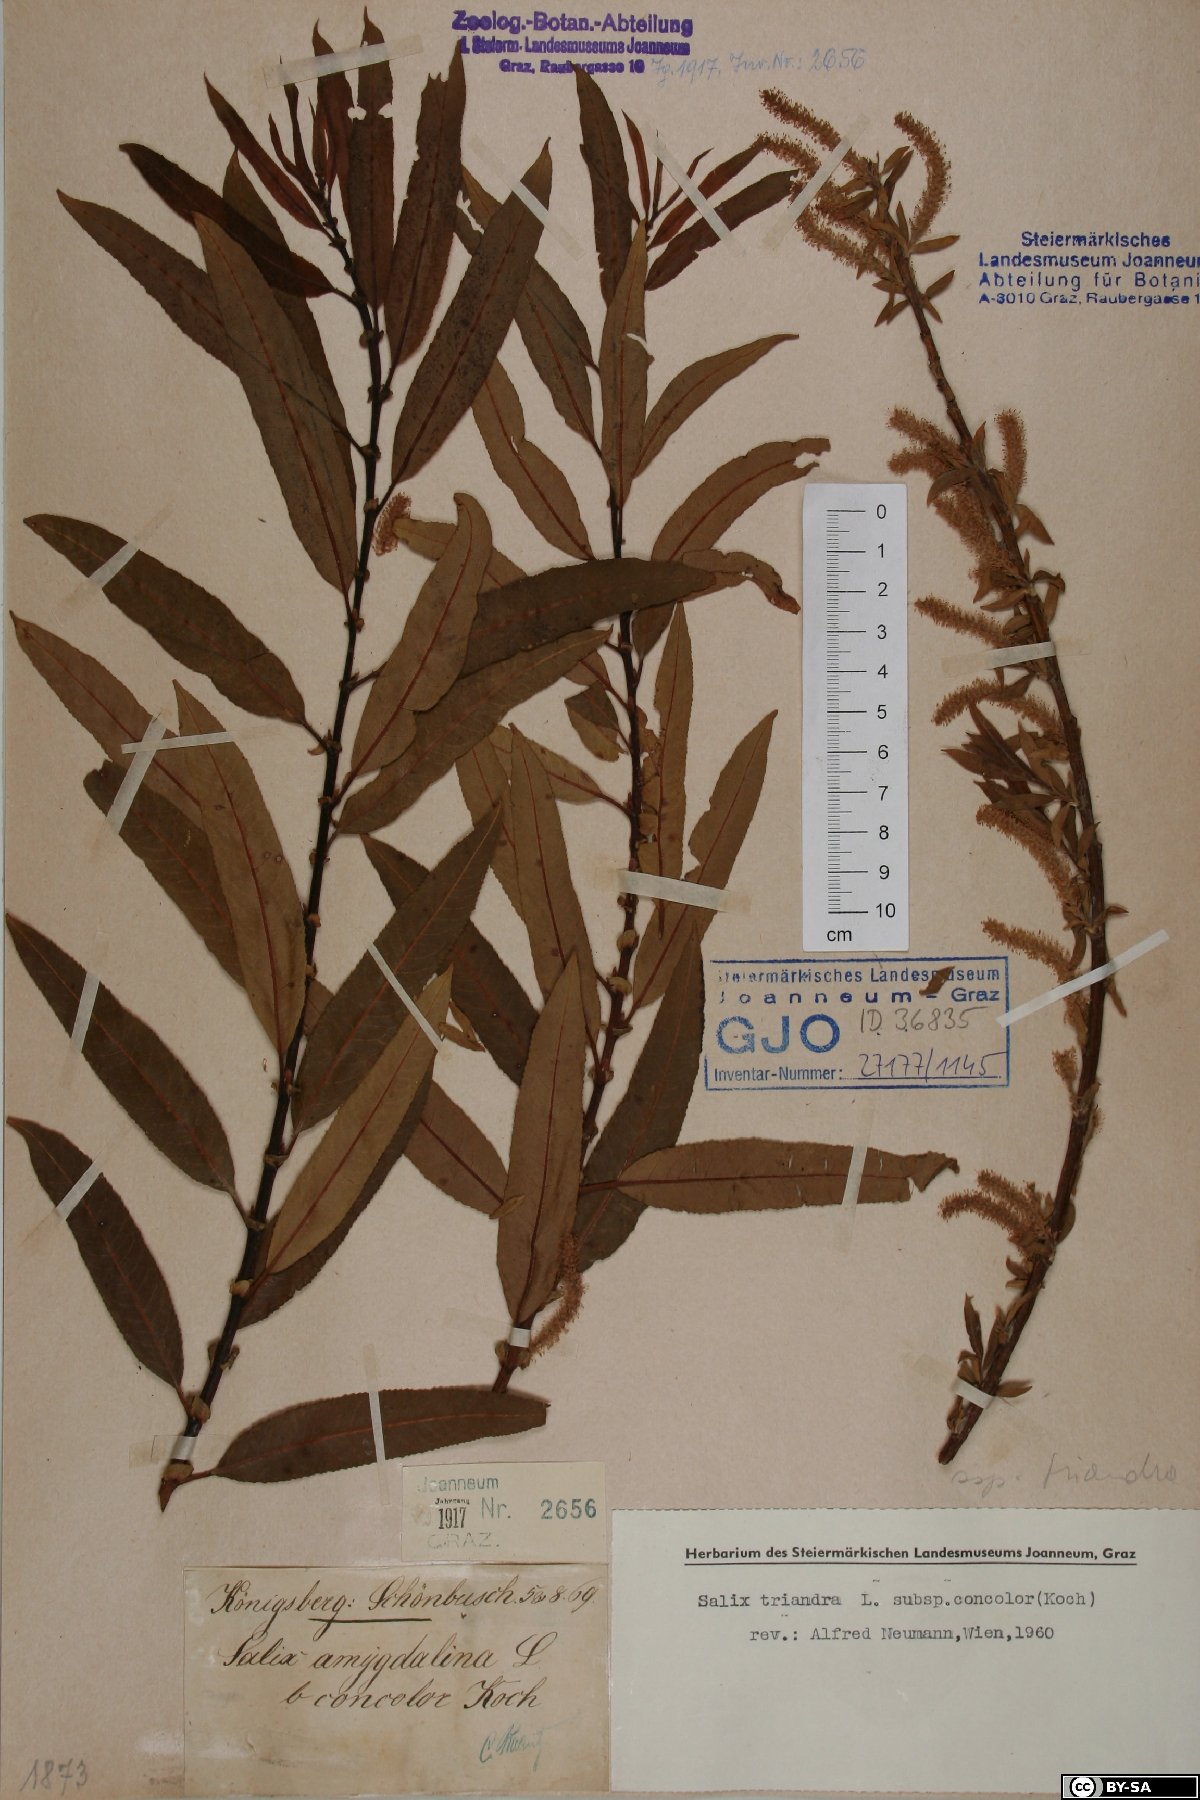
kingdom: Plantae
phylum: Tracheophyta
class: Magnoliopsida
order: Malpighiales
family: Salicaceae
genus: Salix
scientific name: Salix triandra
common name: Almond willow
